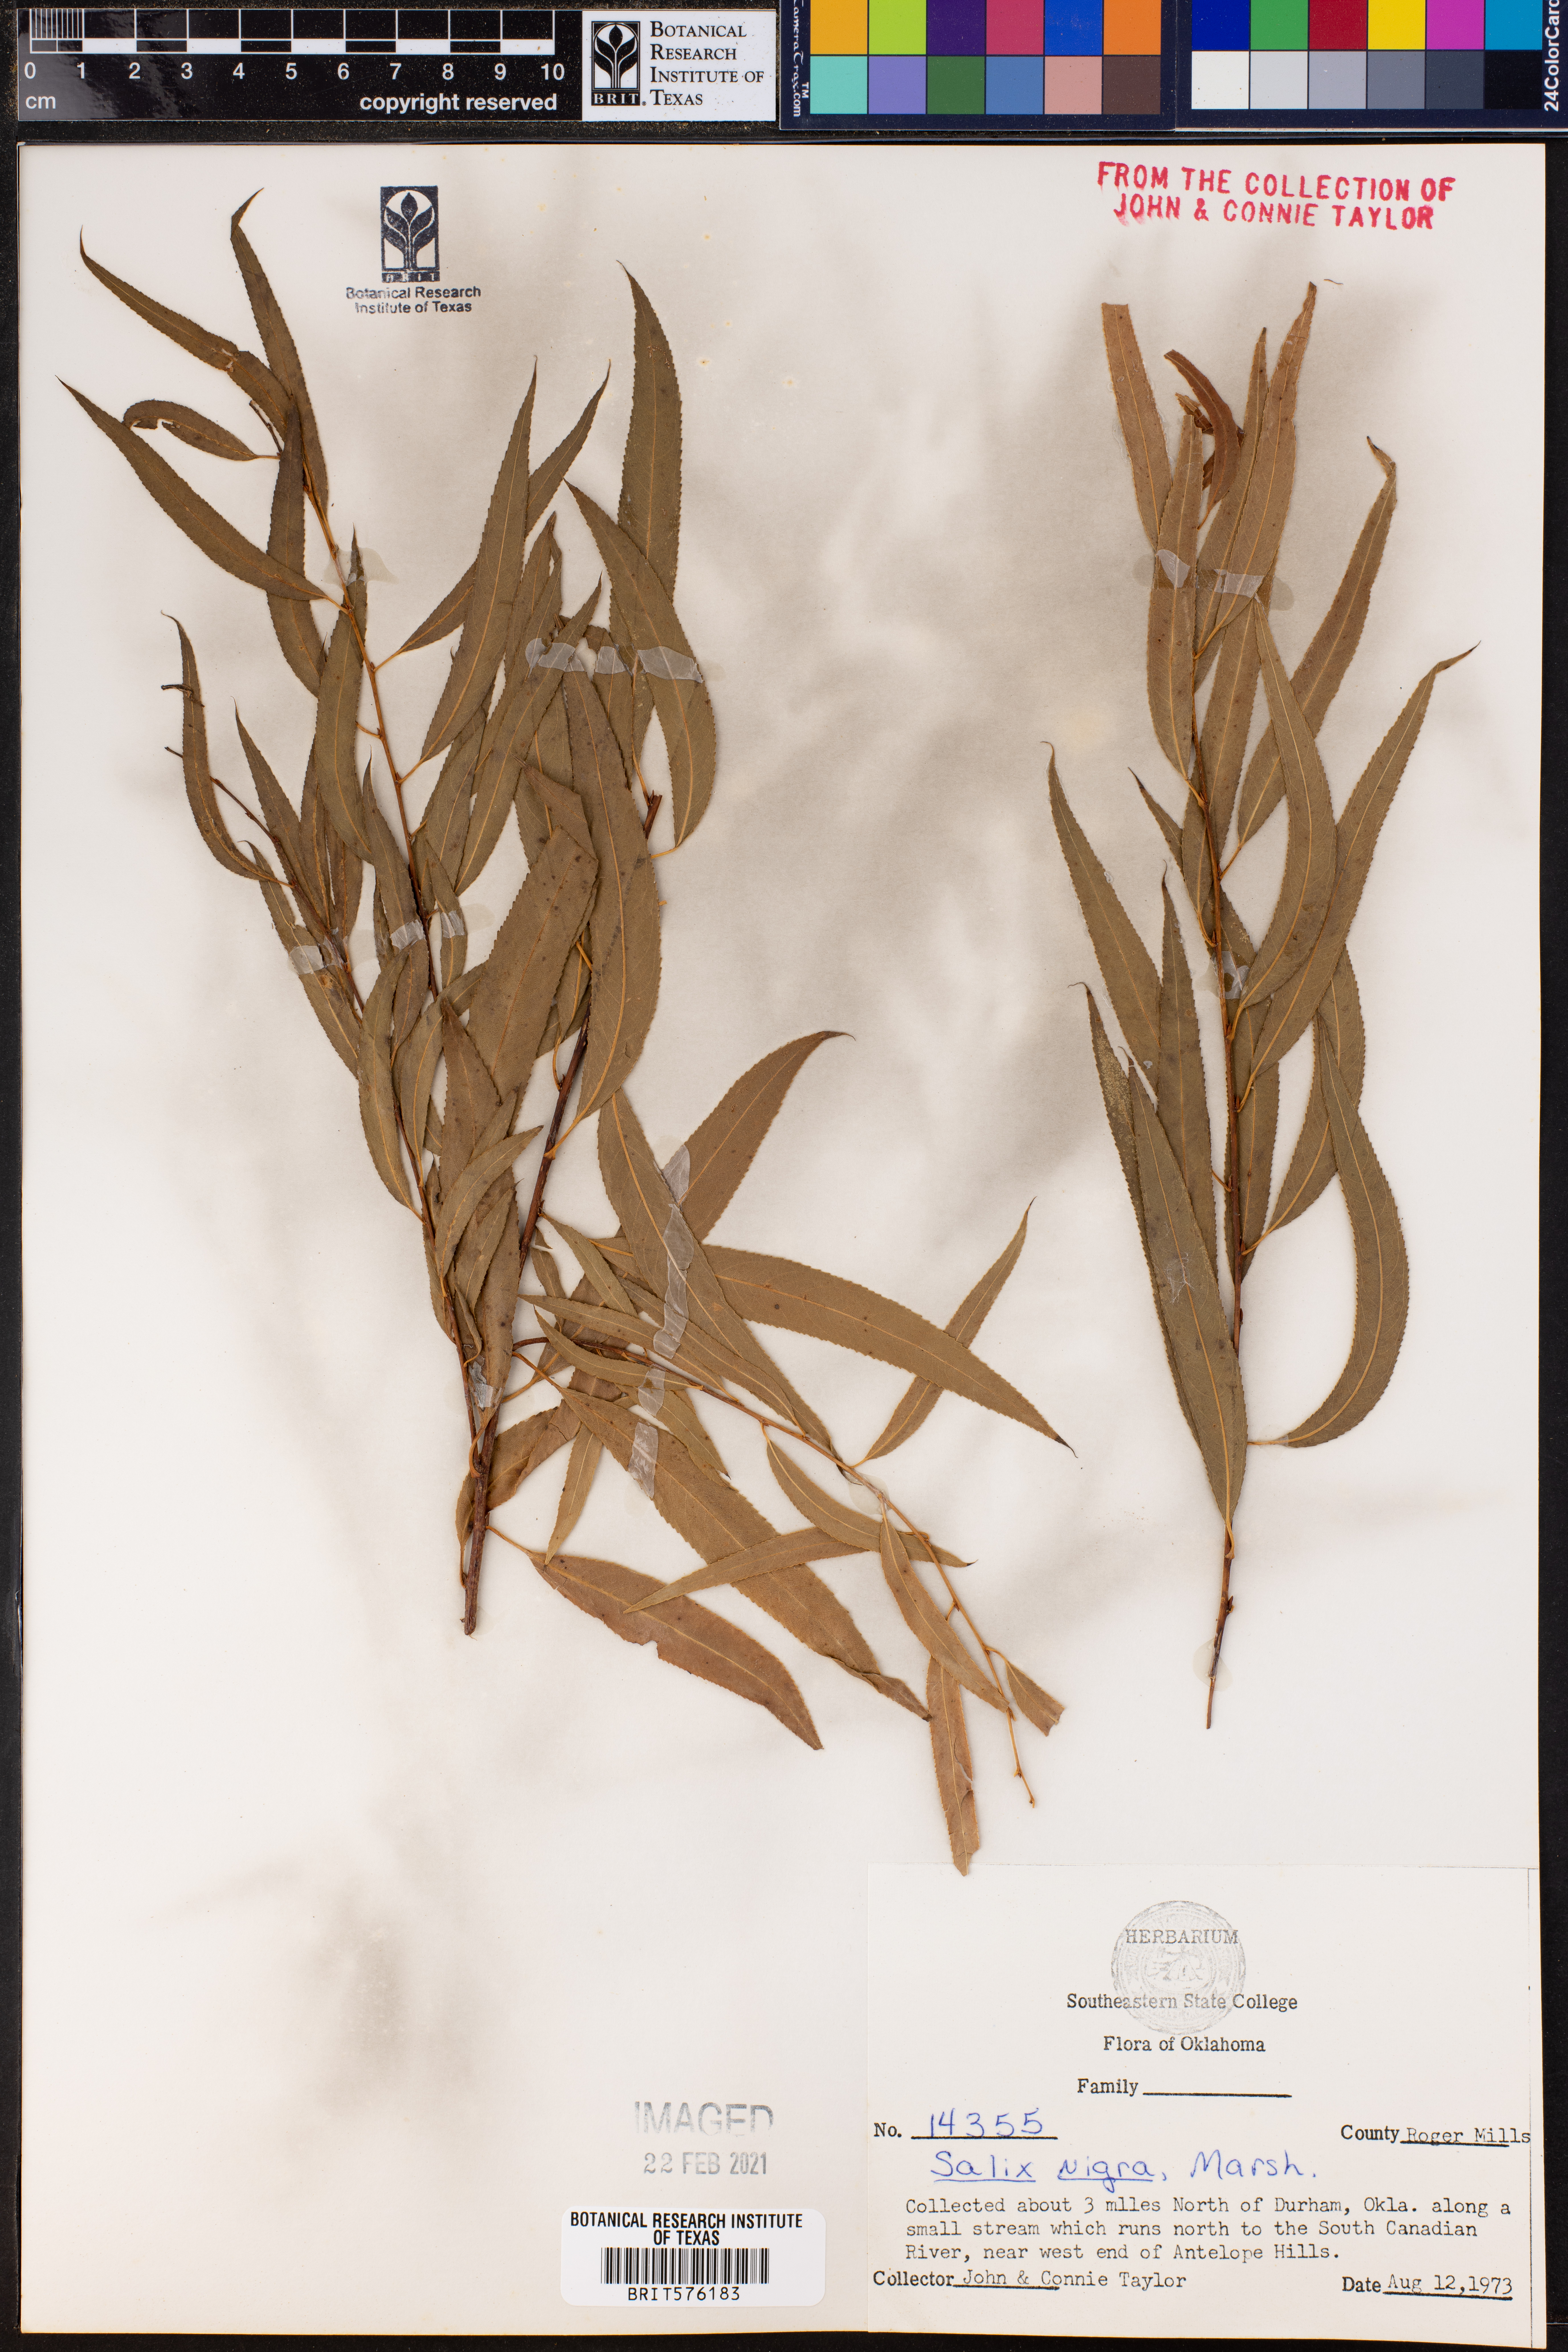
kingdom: Plantae
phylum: Tracheophyta
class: Magnoliopsida
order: Malpighiales
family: Salicaceae
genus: Salix
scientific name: Salix nigra
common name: Black willow
